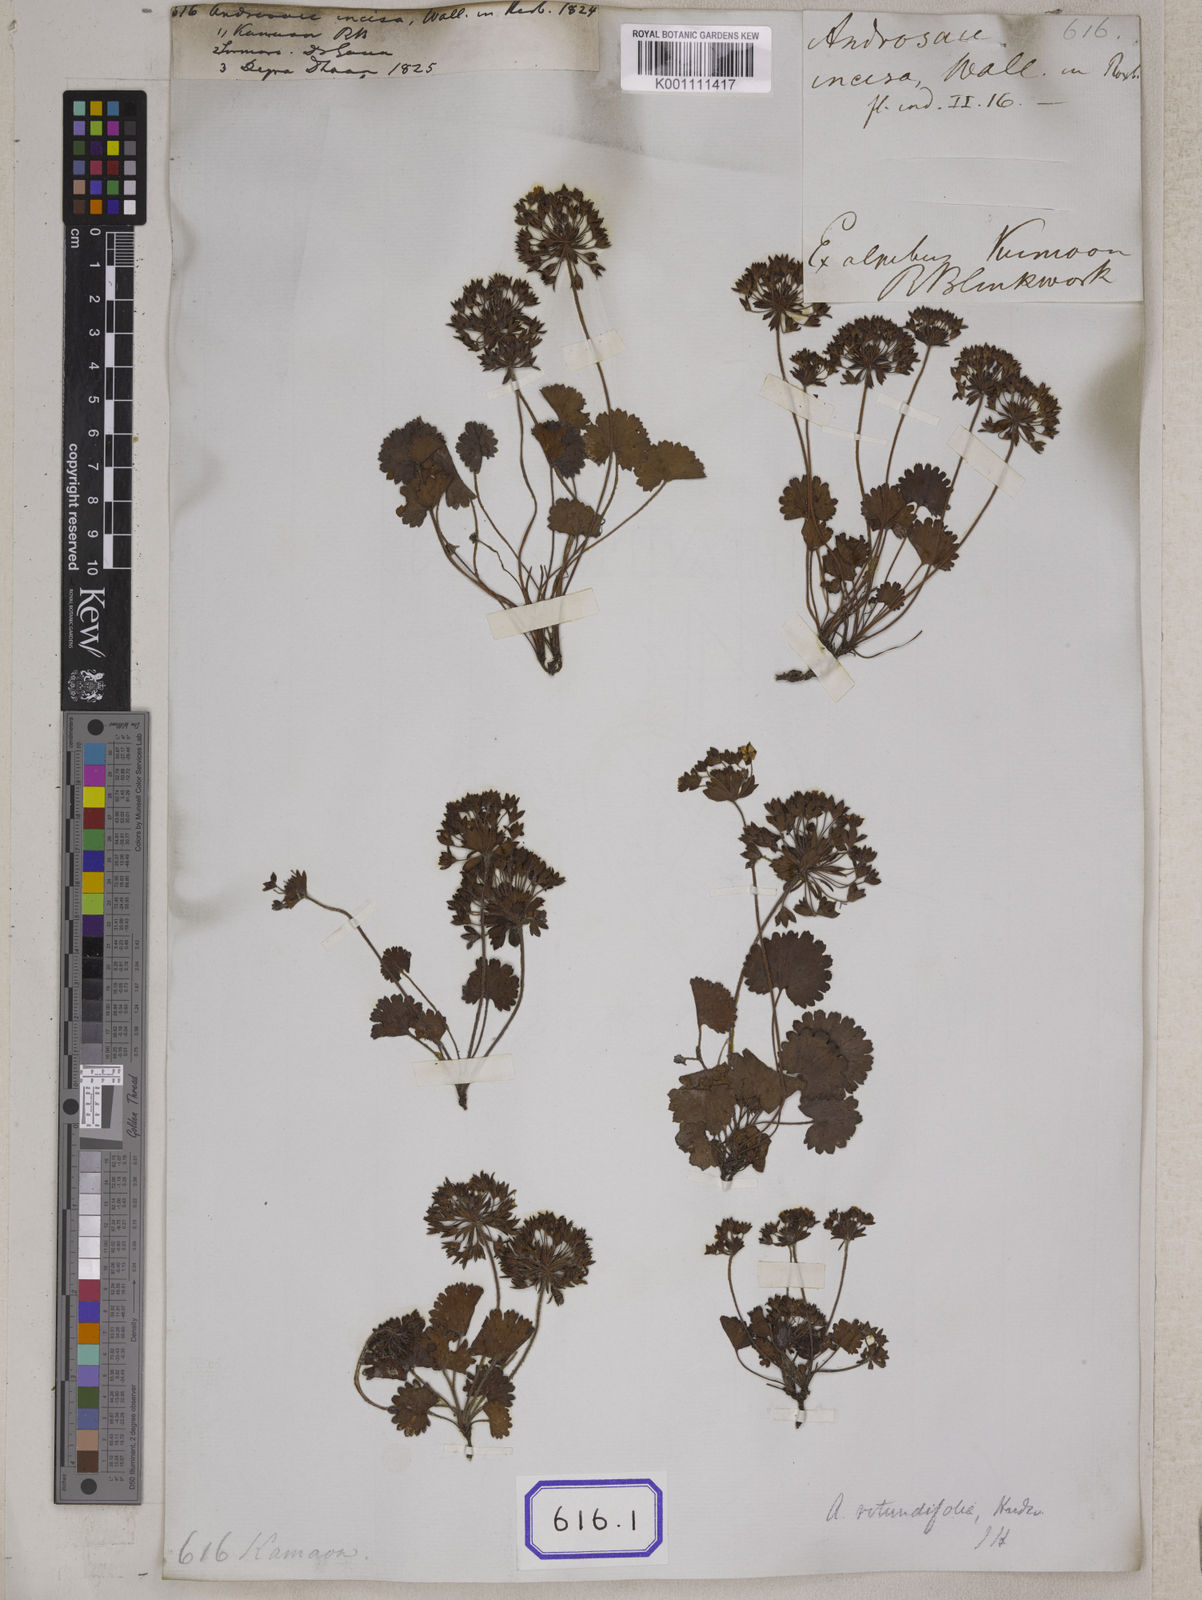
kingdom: Plantae
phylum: Tracheophyta
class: Magnoliopsida
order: Ericales
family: Primulaceae
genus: Androsace
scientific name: Androsace rotundifolia
